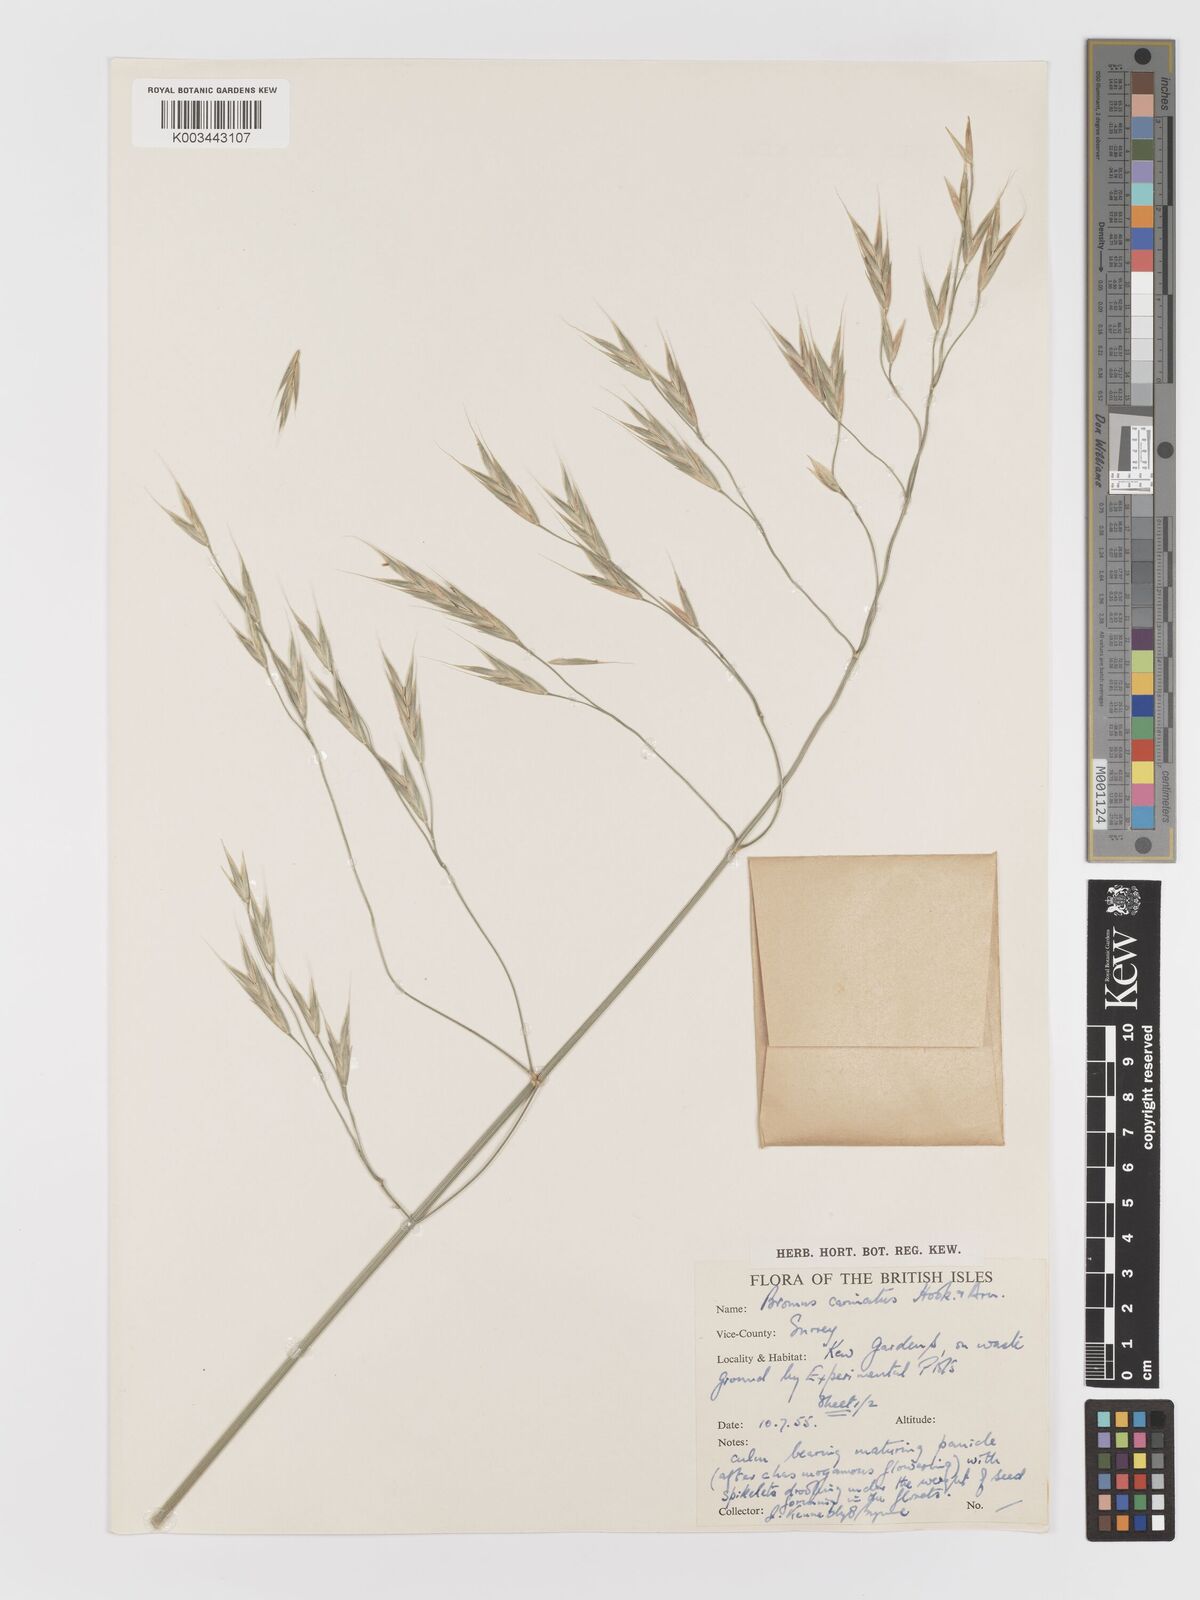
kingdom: Plantae
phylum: Tracheophyta
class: Liliopsida
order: Poales
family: Poaceae
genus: Bromus
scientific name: Bromus carinatus
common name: Mountain brome
